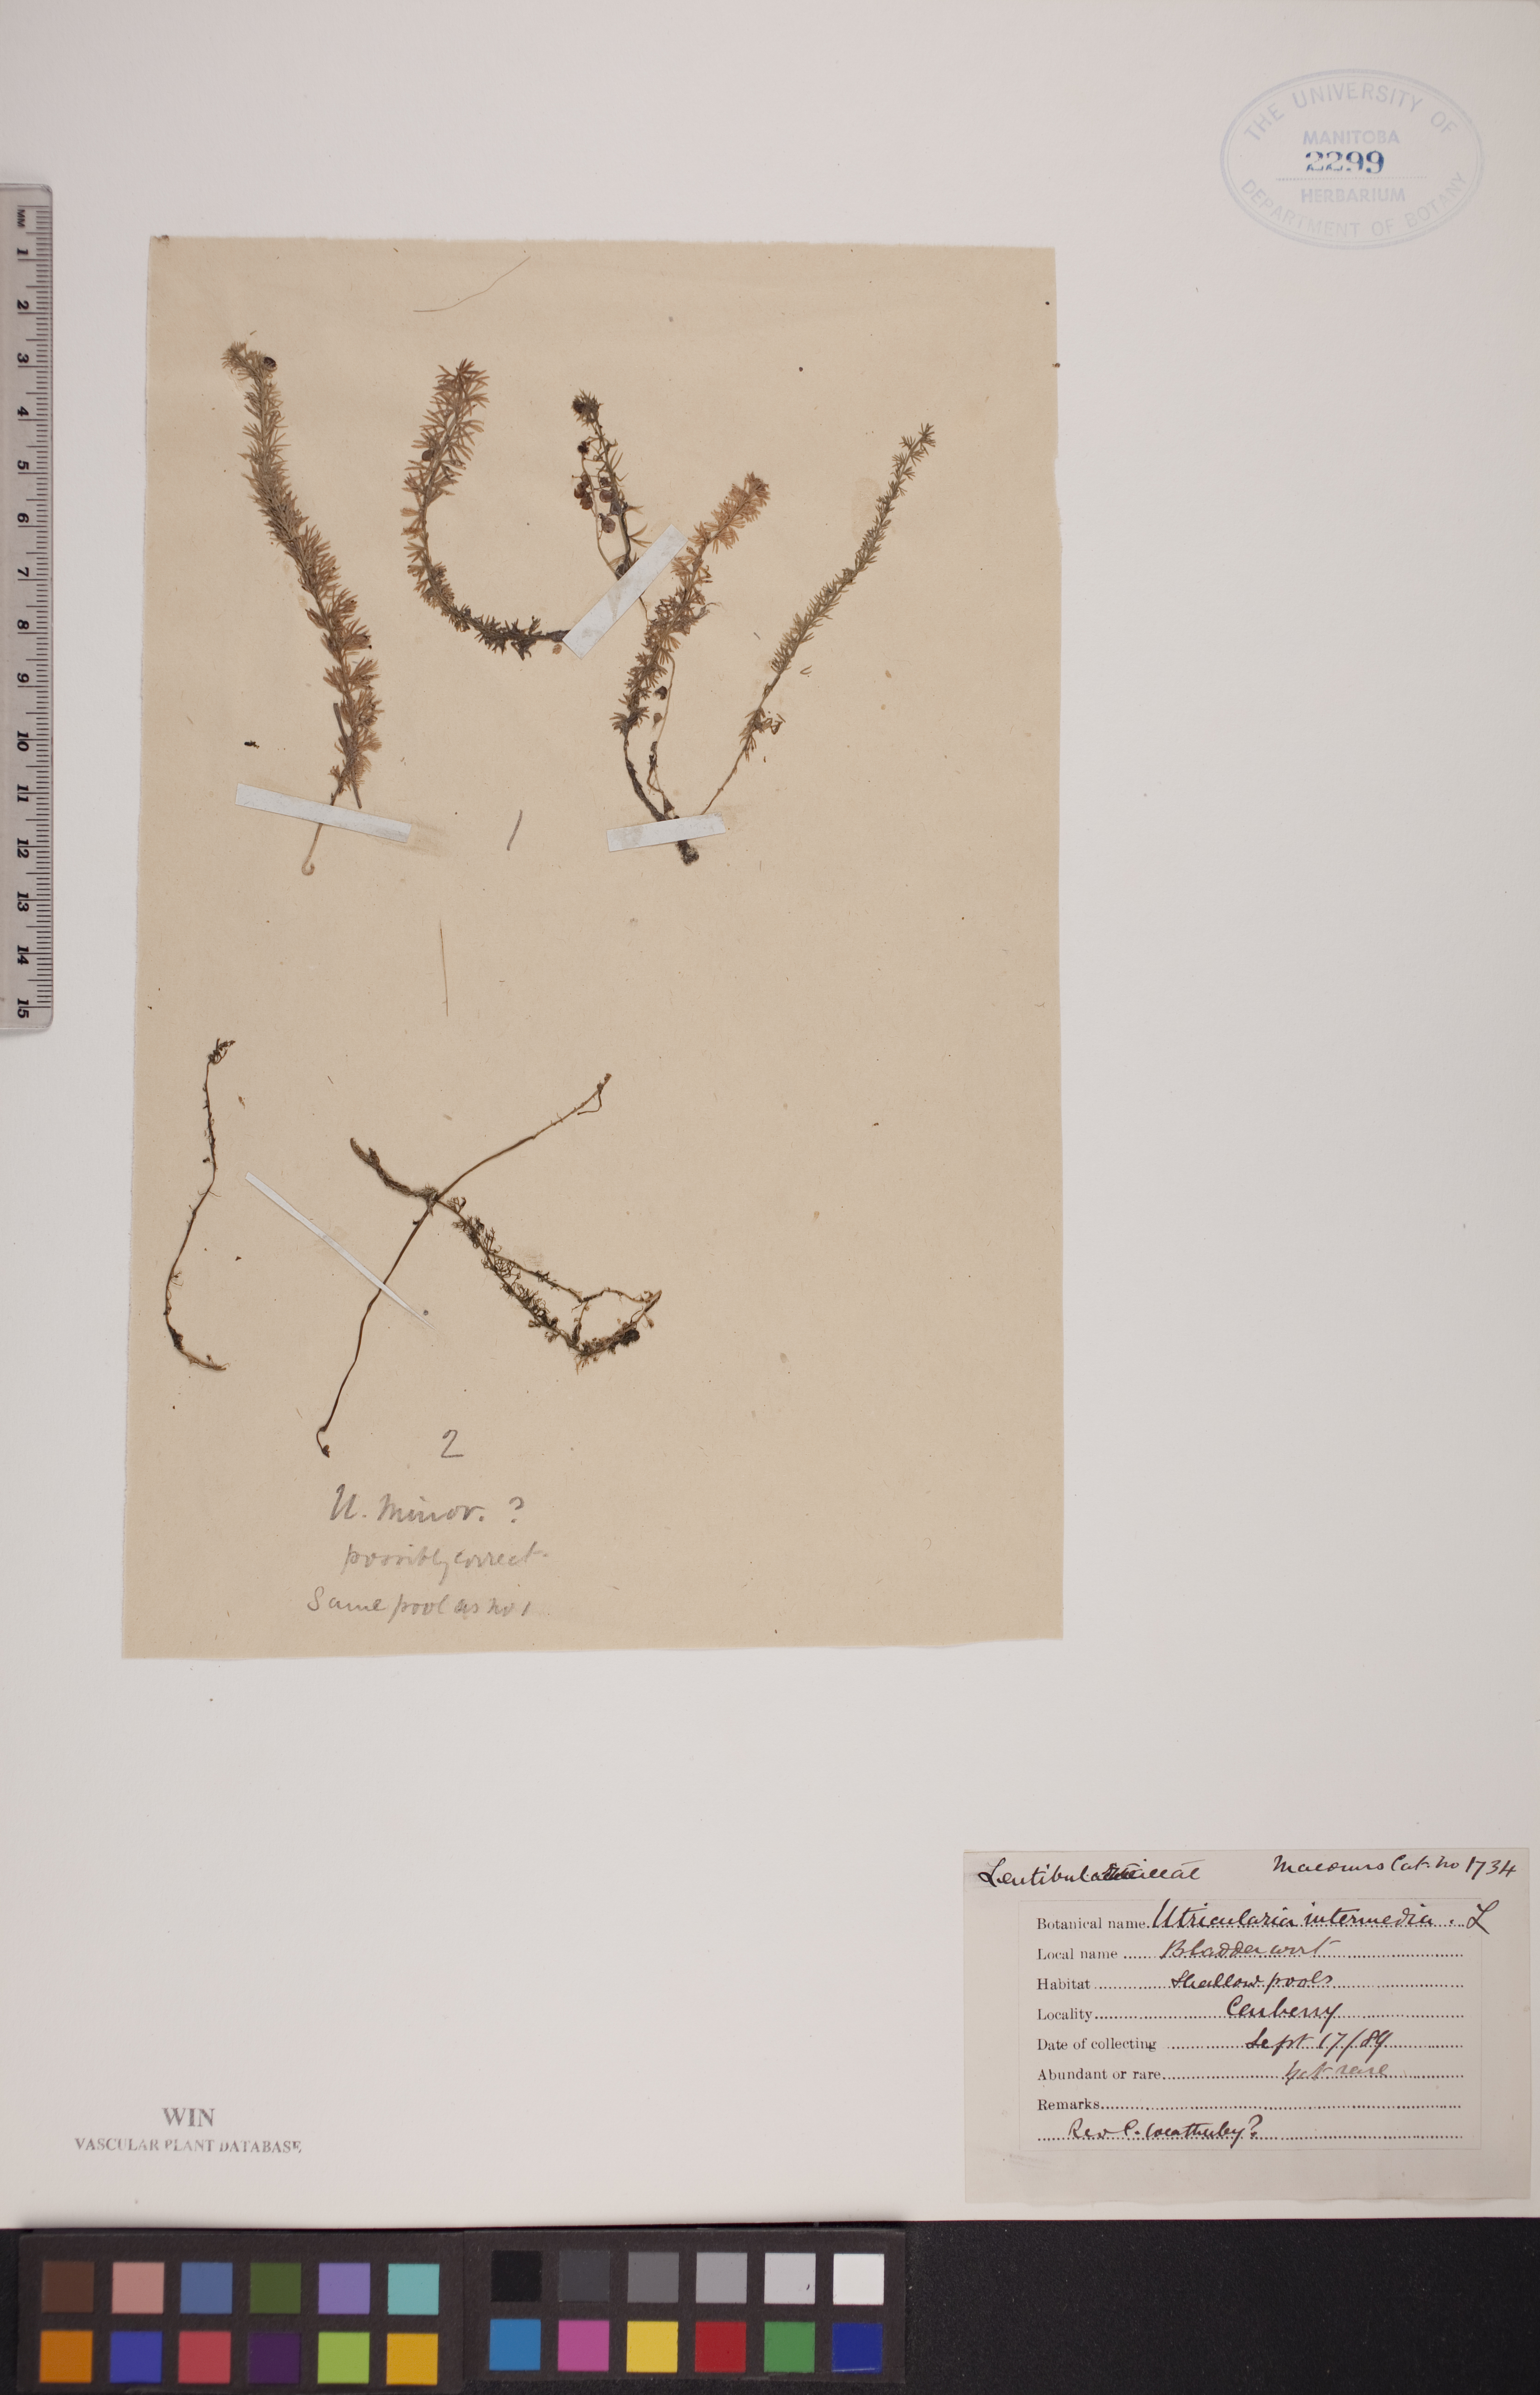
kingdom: Plantae
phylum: Tracheophyta
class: Magnoliopsida
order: Lamiales
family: Lentibulariaceae
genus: Utricularia
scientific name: Utricularia intermedia
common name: Intermediate bladderwort
